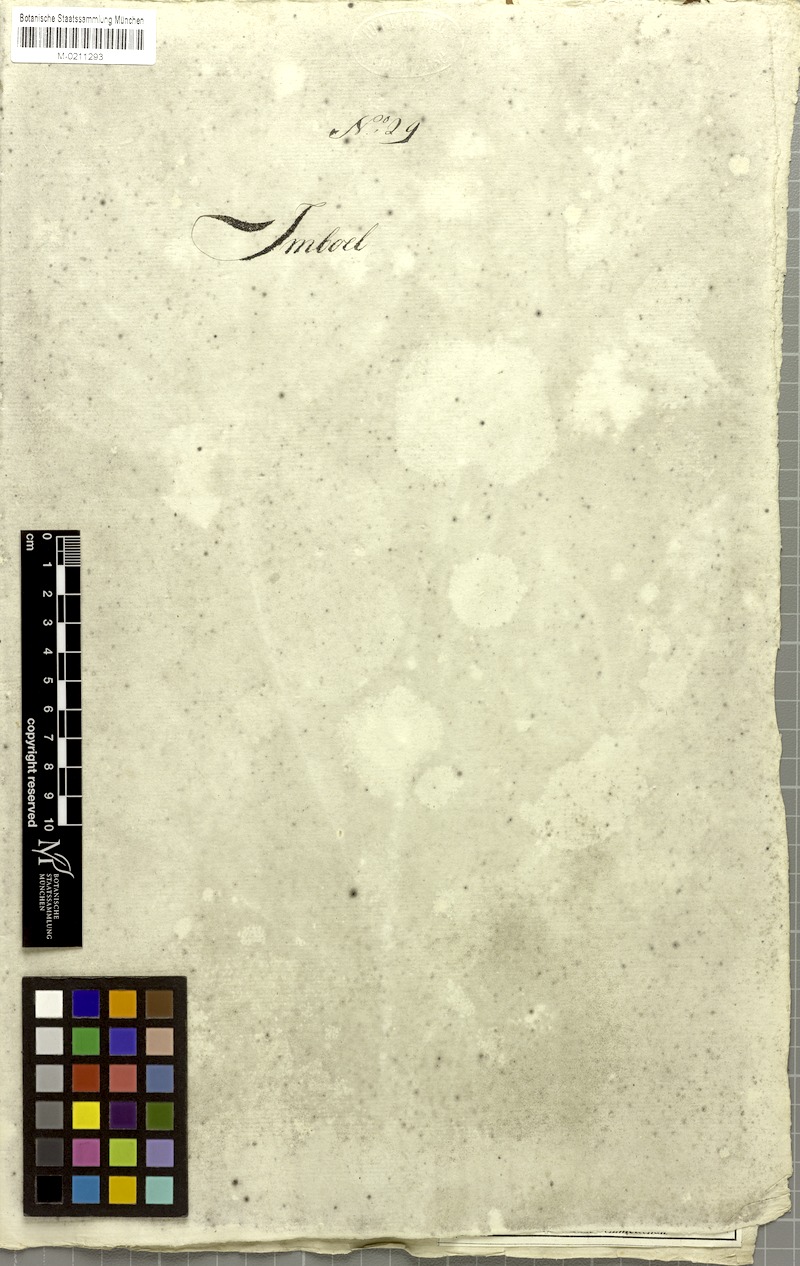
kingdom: Plantae
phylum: Tracheophyta
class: Magnoliopsida
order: Malvales
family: Malvaceae
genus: Sterculia
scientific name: Sterculia foetida
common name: Hazel sterculia
